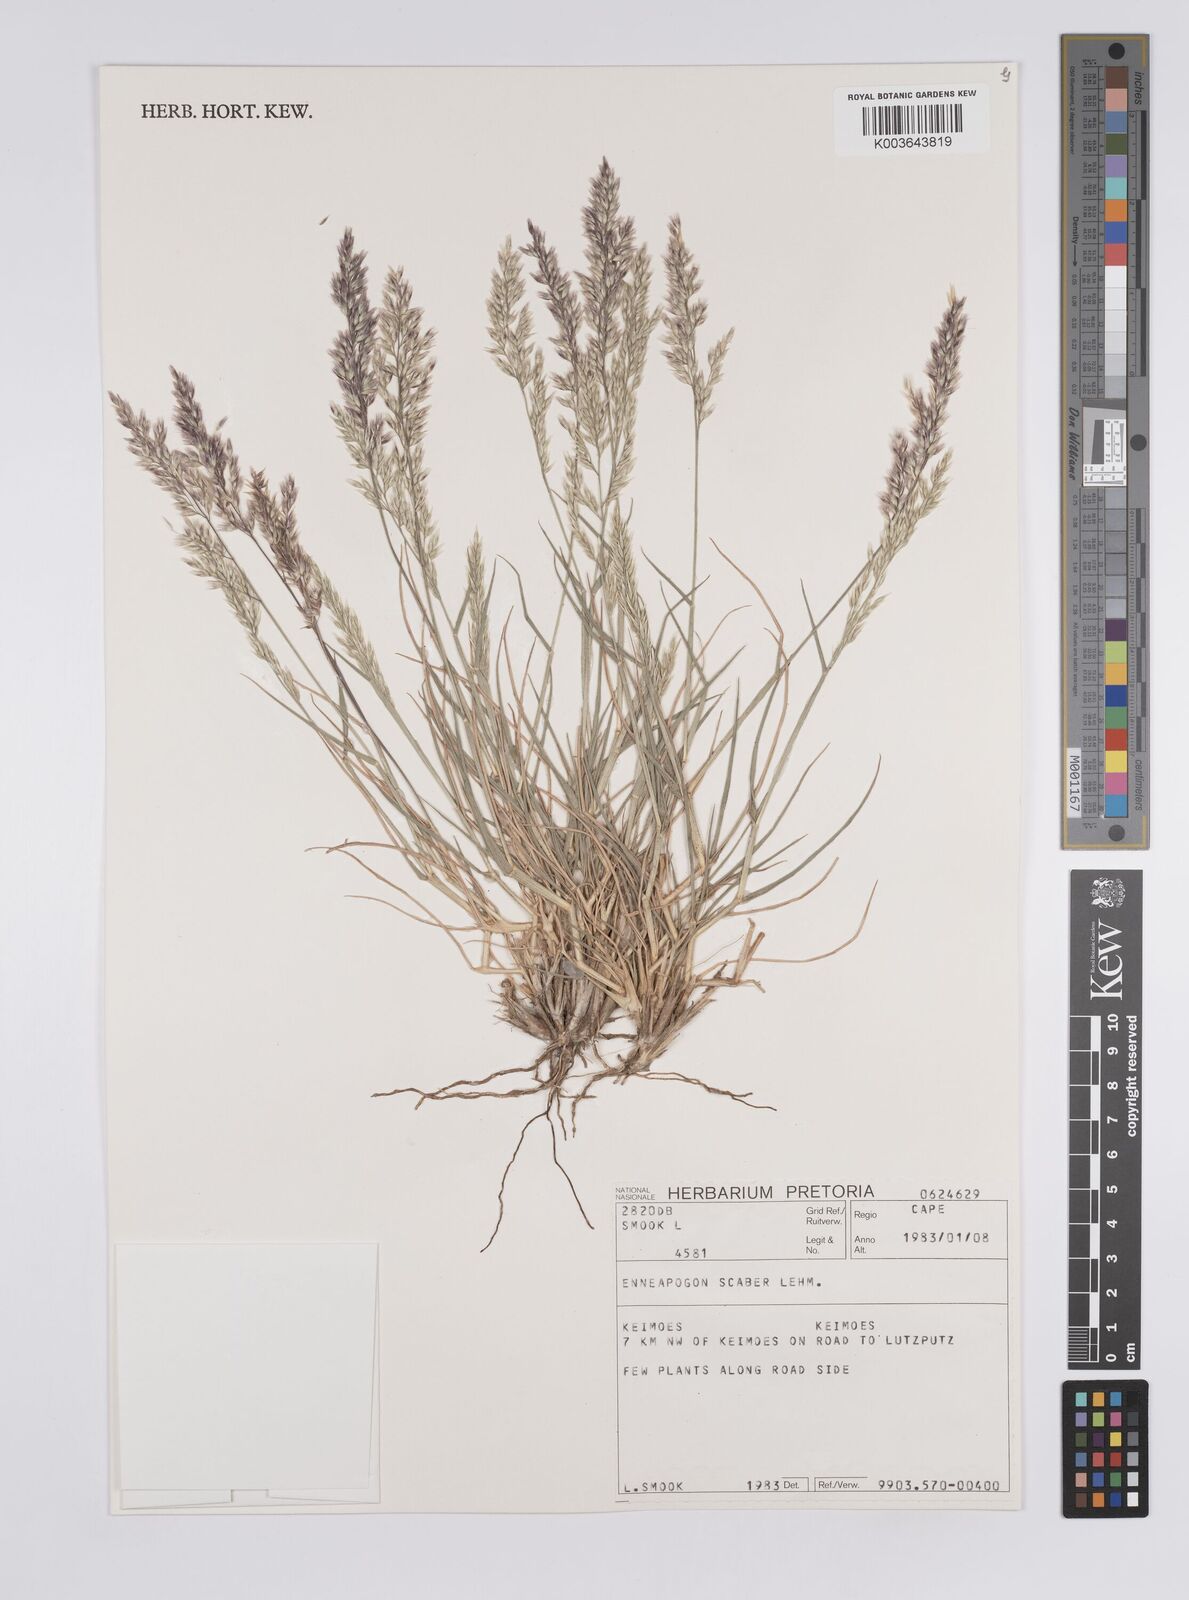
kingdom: Plantae
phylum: Tracheophyta
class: Liliopsida
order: Poales
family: Poaceae
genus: Enneapogon
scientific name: Enneapogon scaber
